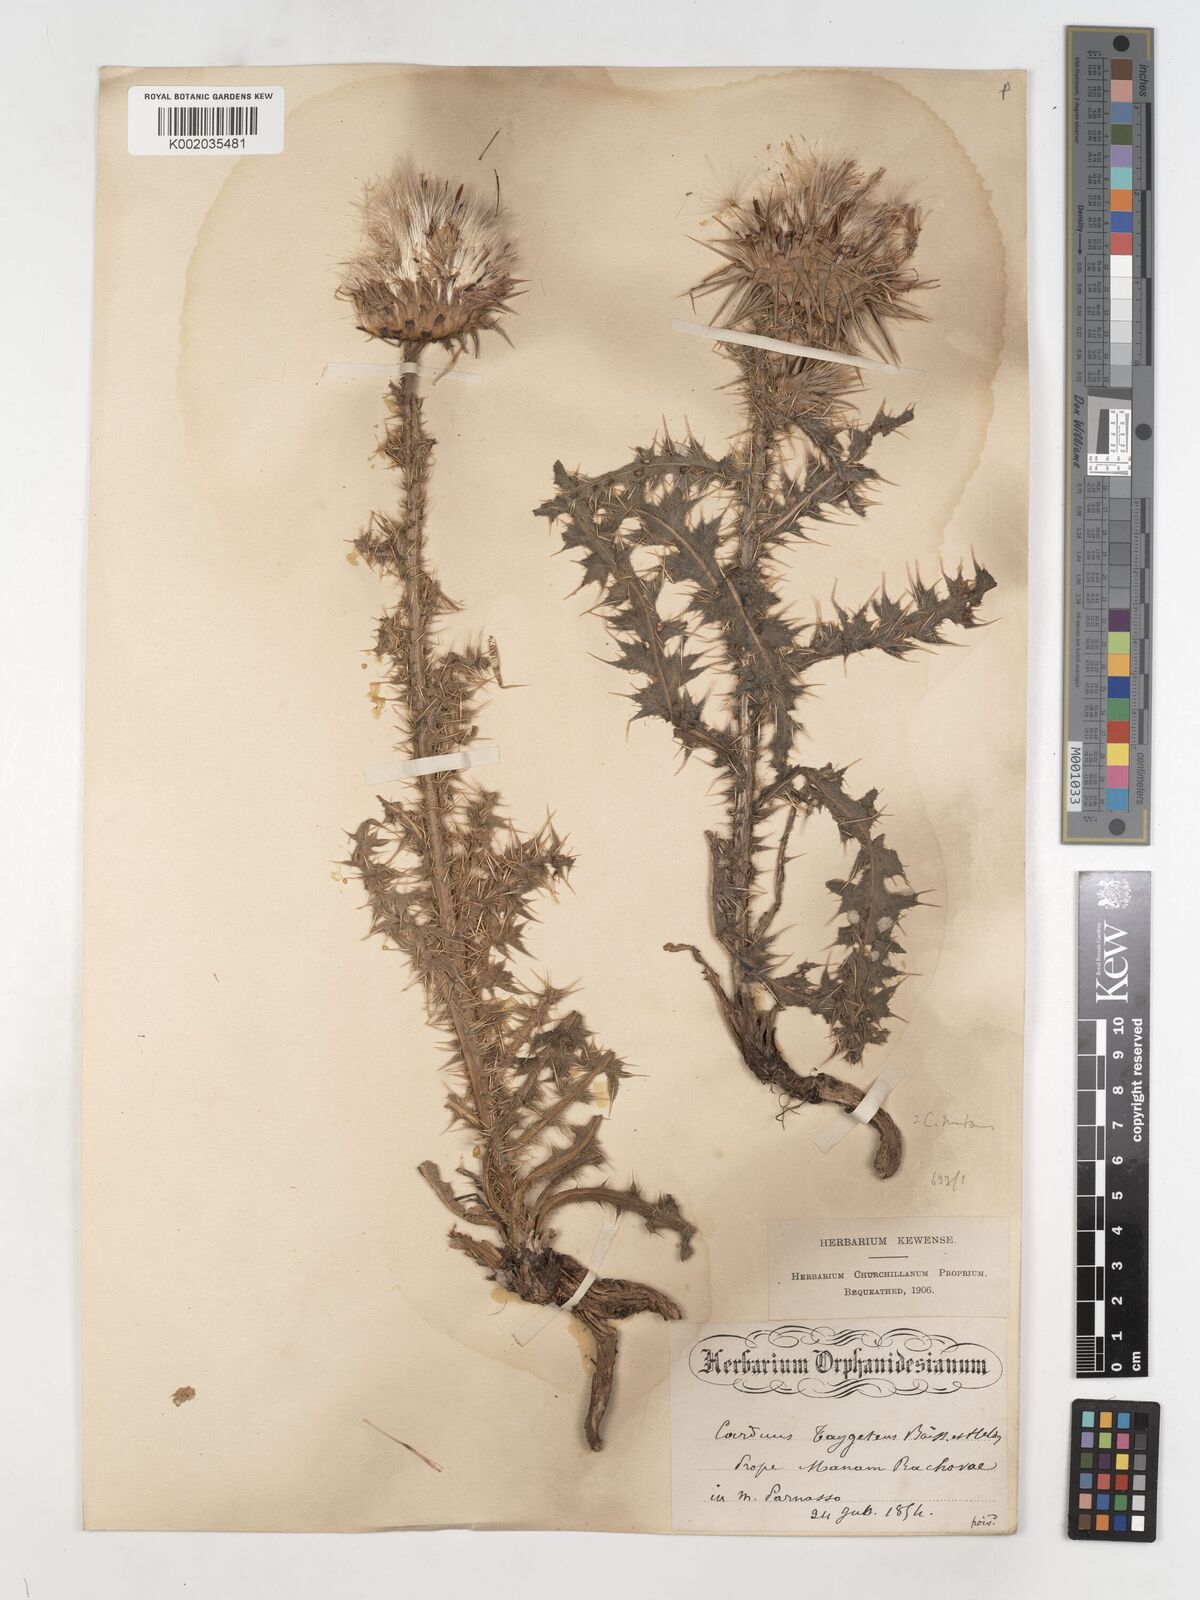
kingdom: Plantae
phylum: Tracheophyta
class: Magnoliopsida
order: Asterales
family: Asteraceae
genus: Carduus
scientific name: Carduus nutans
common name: Musk thistle
